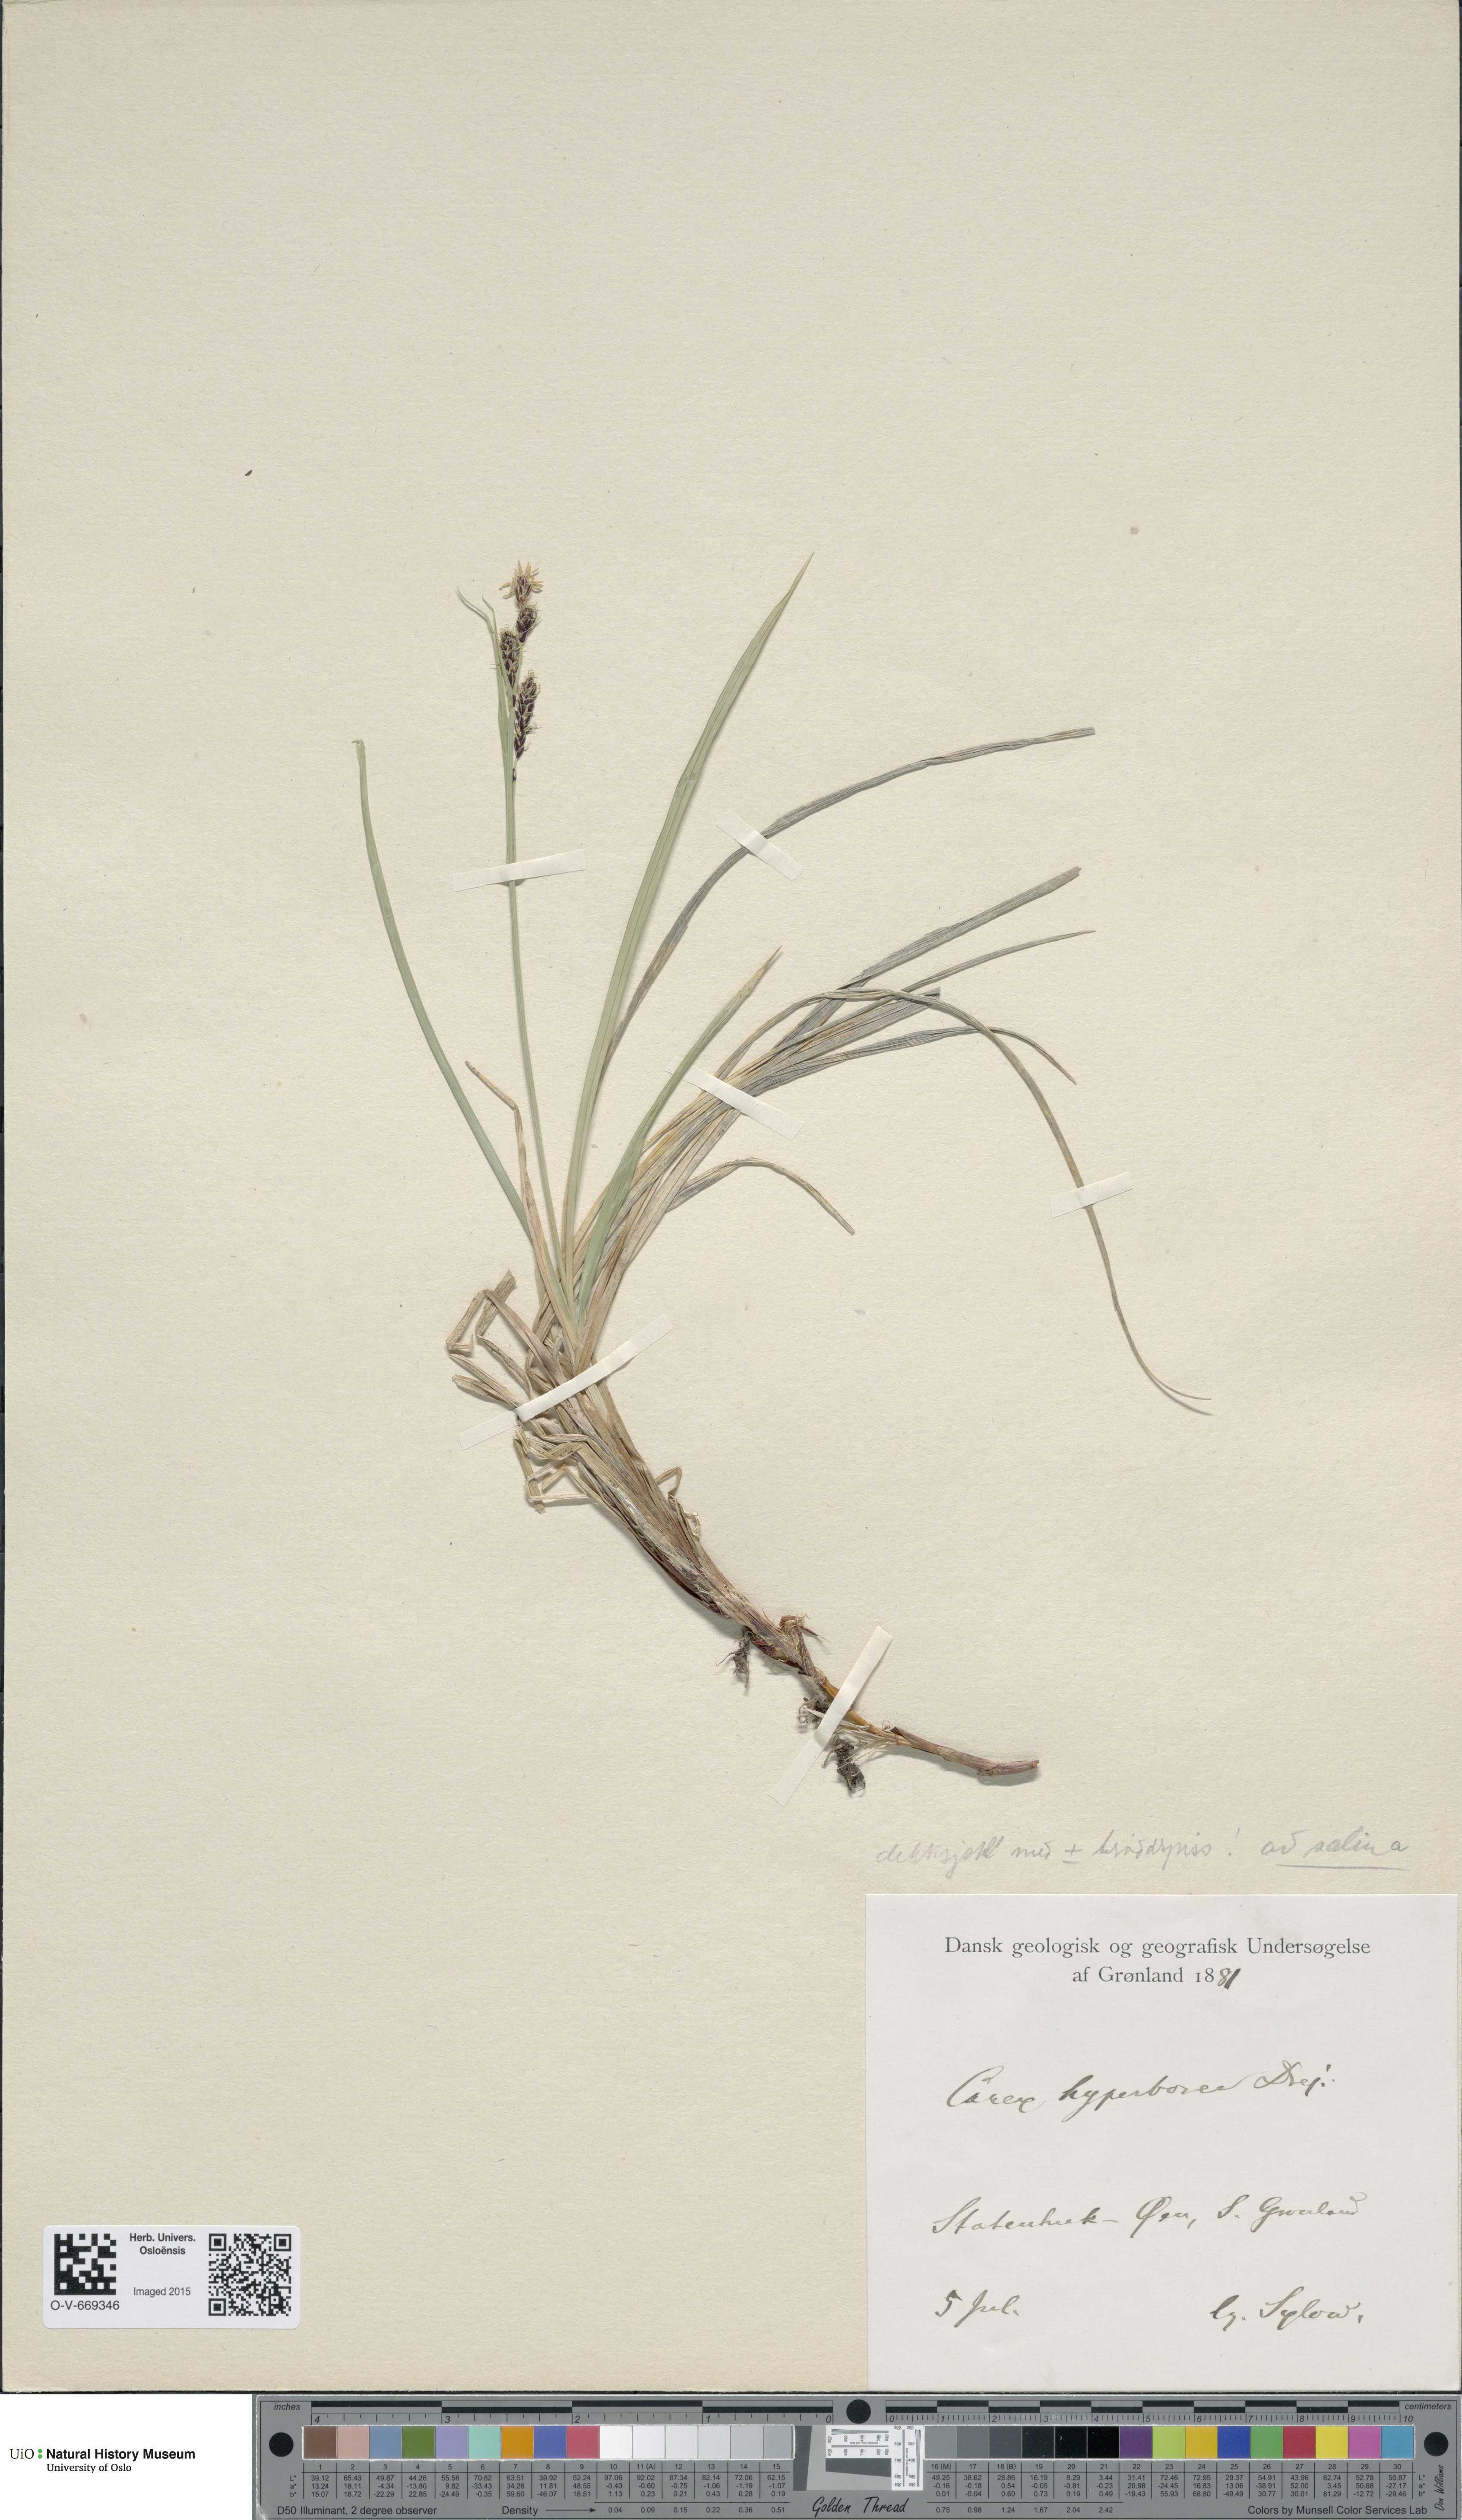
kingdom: Plantae
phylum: Tracheophyta
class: Liliopsida
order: Poales
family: Cyperaceae
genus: Carex
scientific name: Carex bigelowii
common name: Stiff sedge
